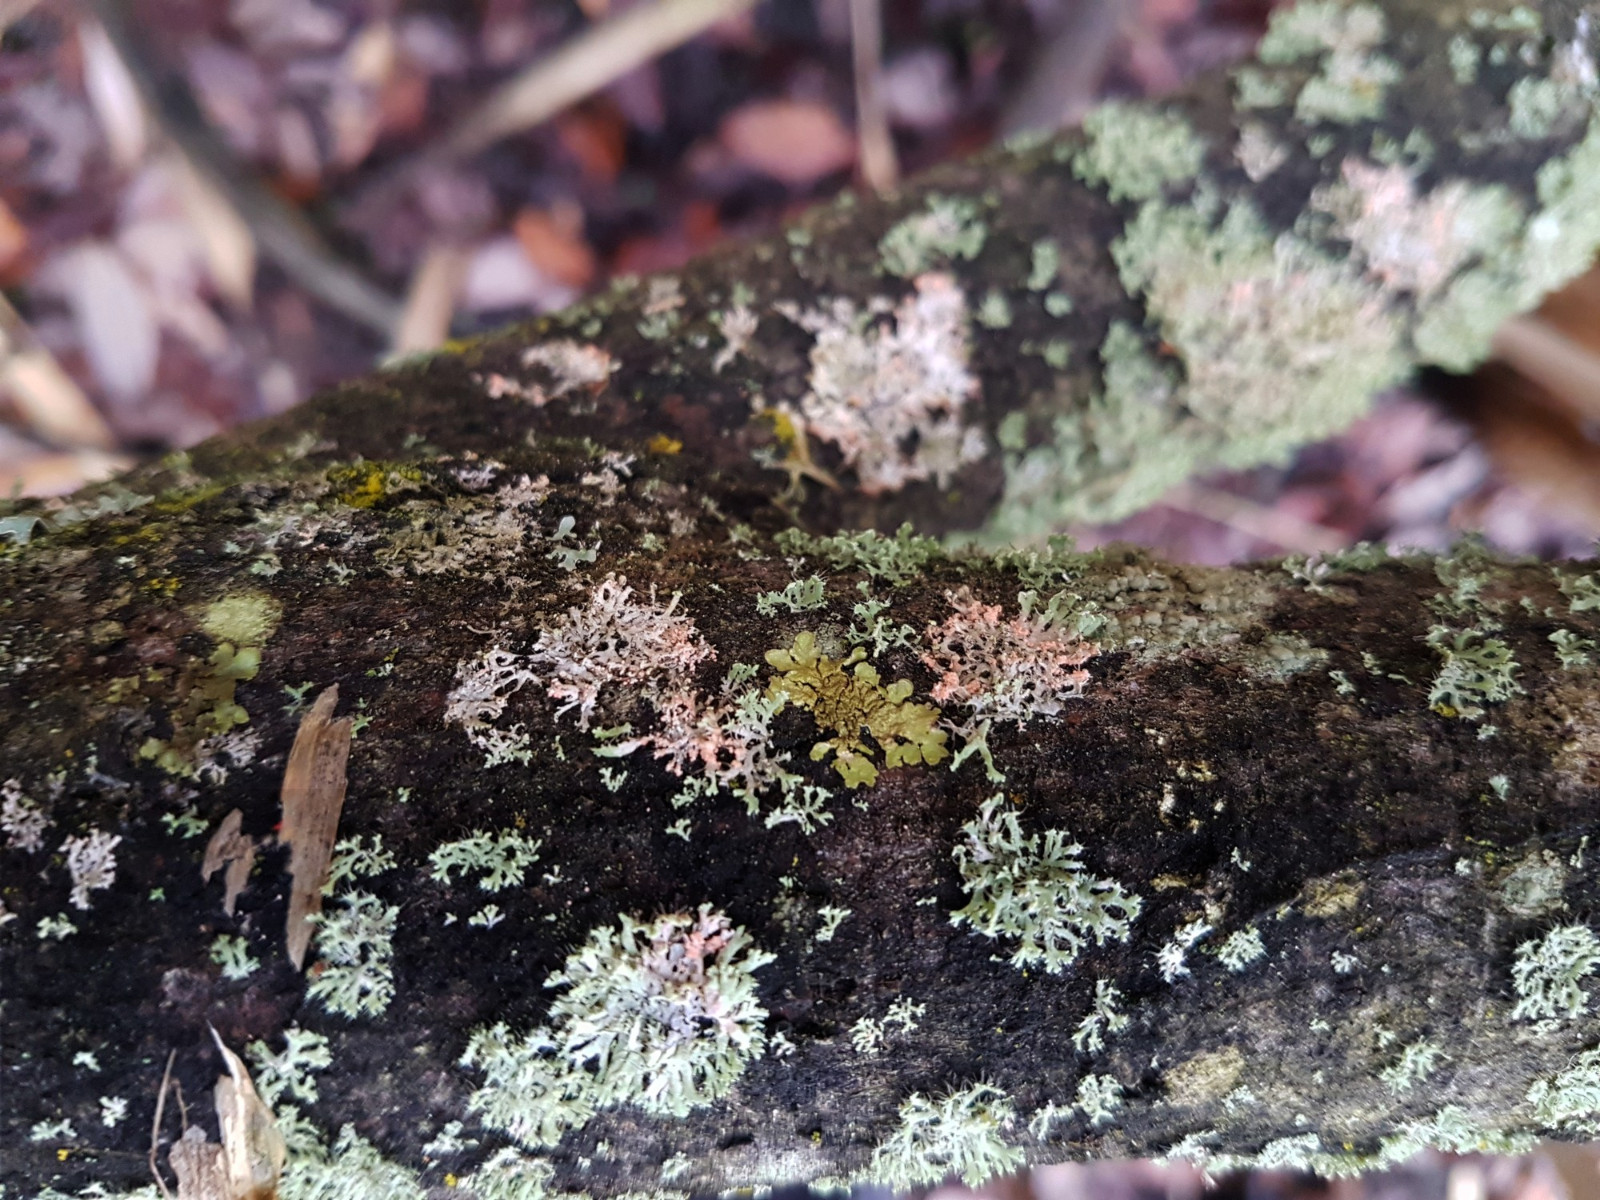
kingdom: Fungi
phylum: Basidiomycota
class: Agaricomycetes
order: Corticiales
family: Corticiaceae
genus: Erythricium
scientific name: Erythricium aurantiacum
